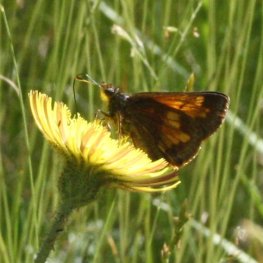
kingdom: Animalia
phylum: Arthropoda
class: Insecta
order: Lepidoptera
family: Hesperiidae
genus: Lon
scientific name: Lon hobomok
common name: Hobomok Skipper
